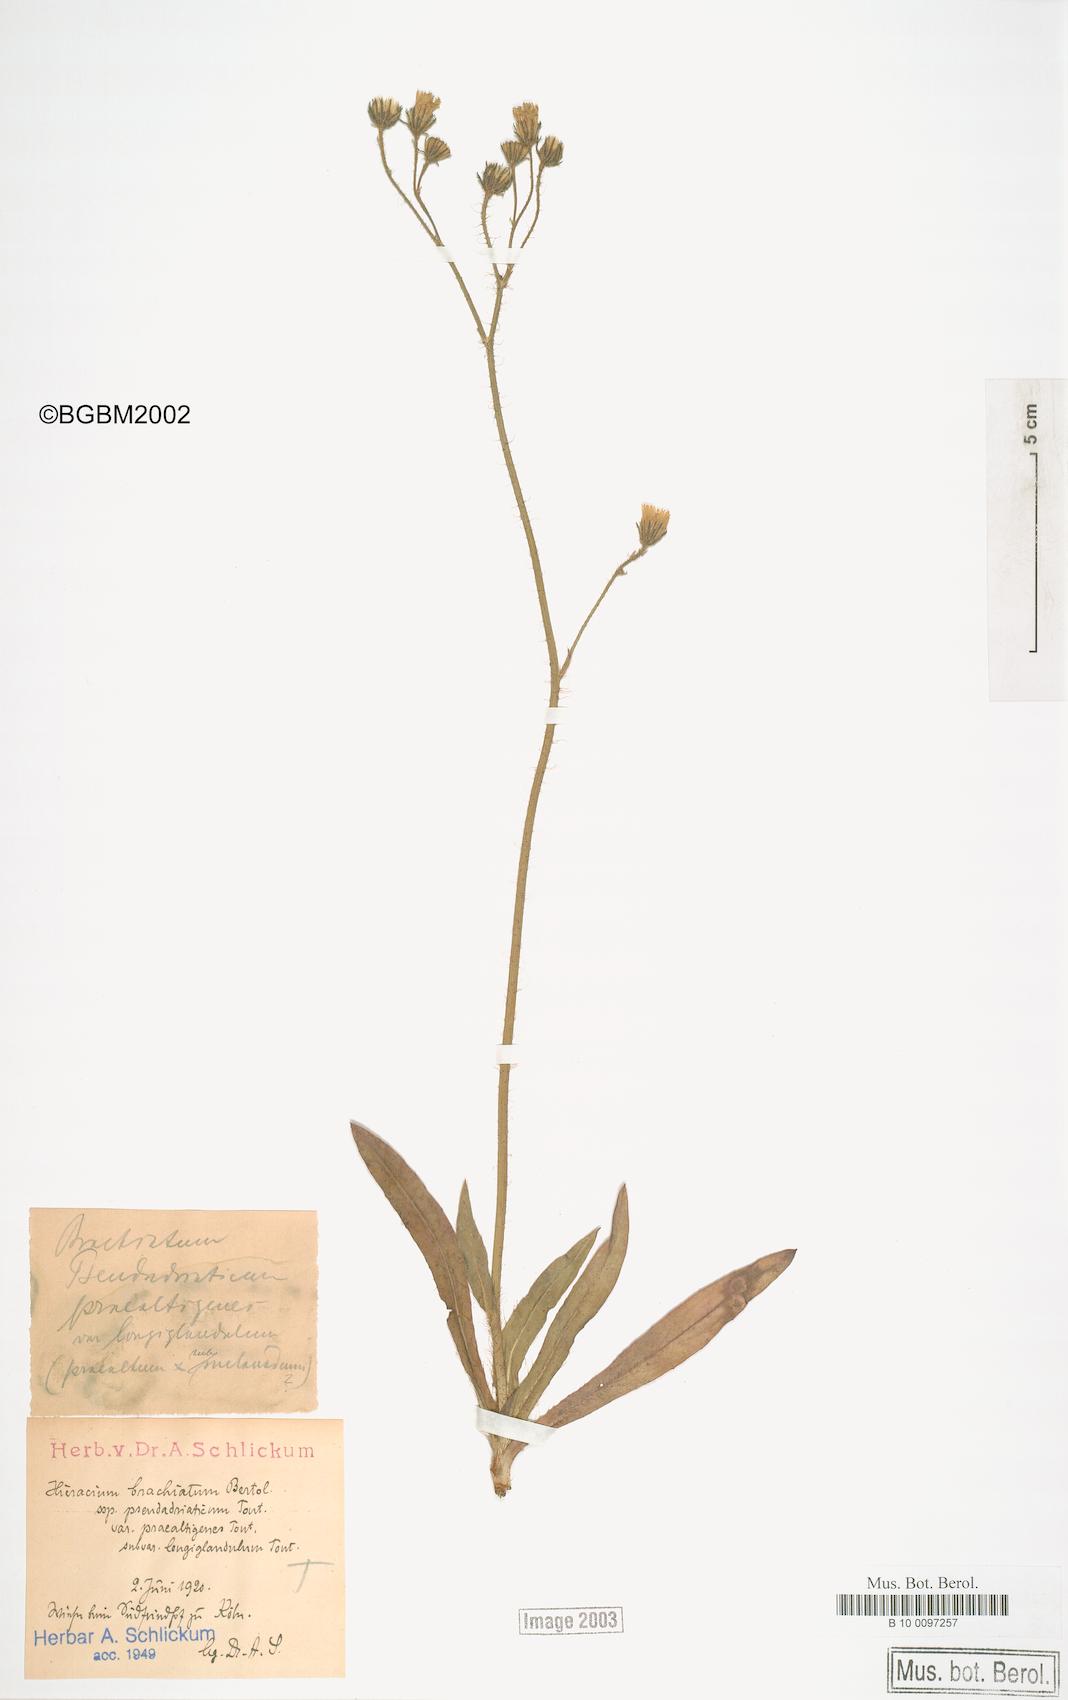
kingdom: Plantae
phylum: Tracheophyta
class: Magnoliopsida
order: Asterales
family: Asteraceae
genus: Pilosella
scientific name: Pilosella acutifolia
